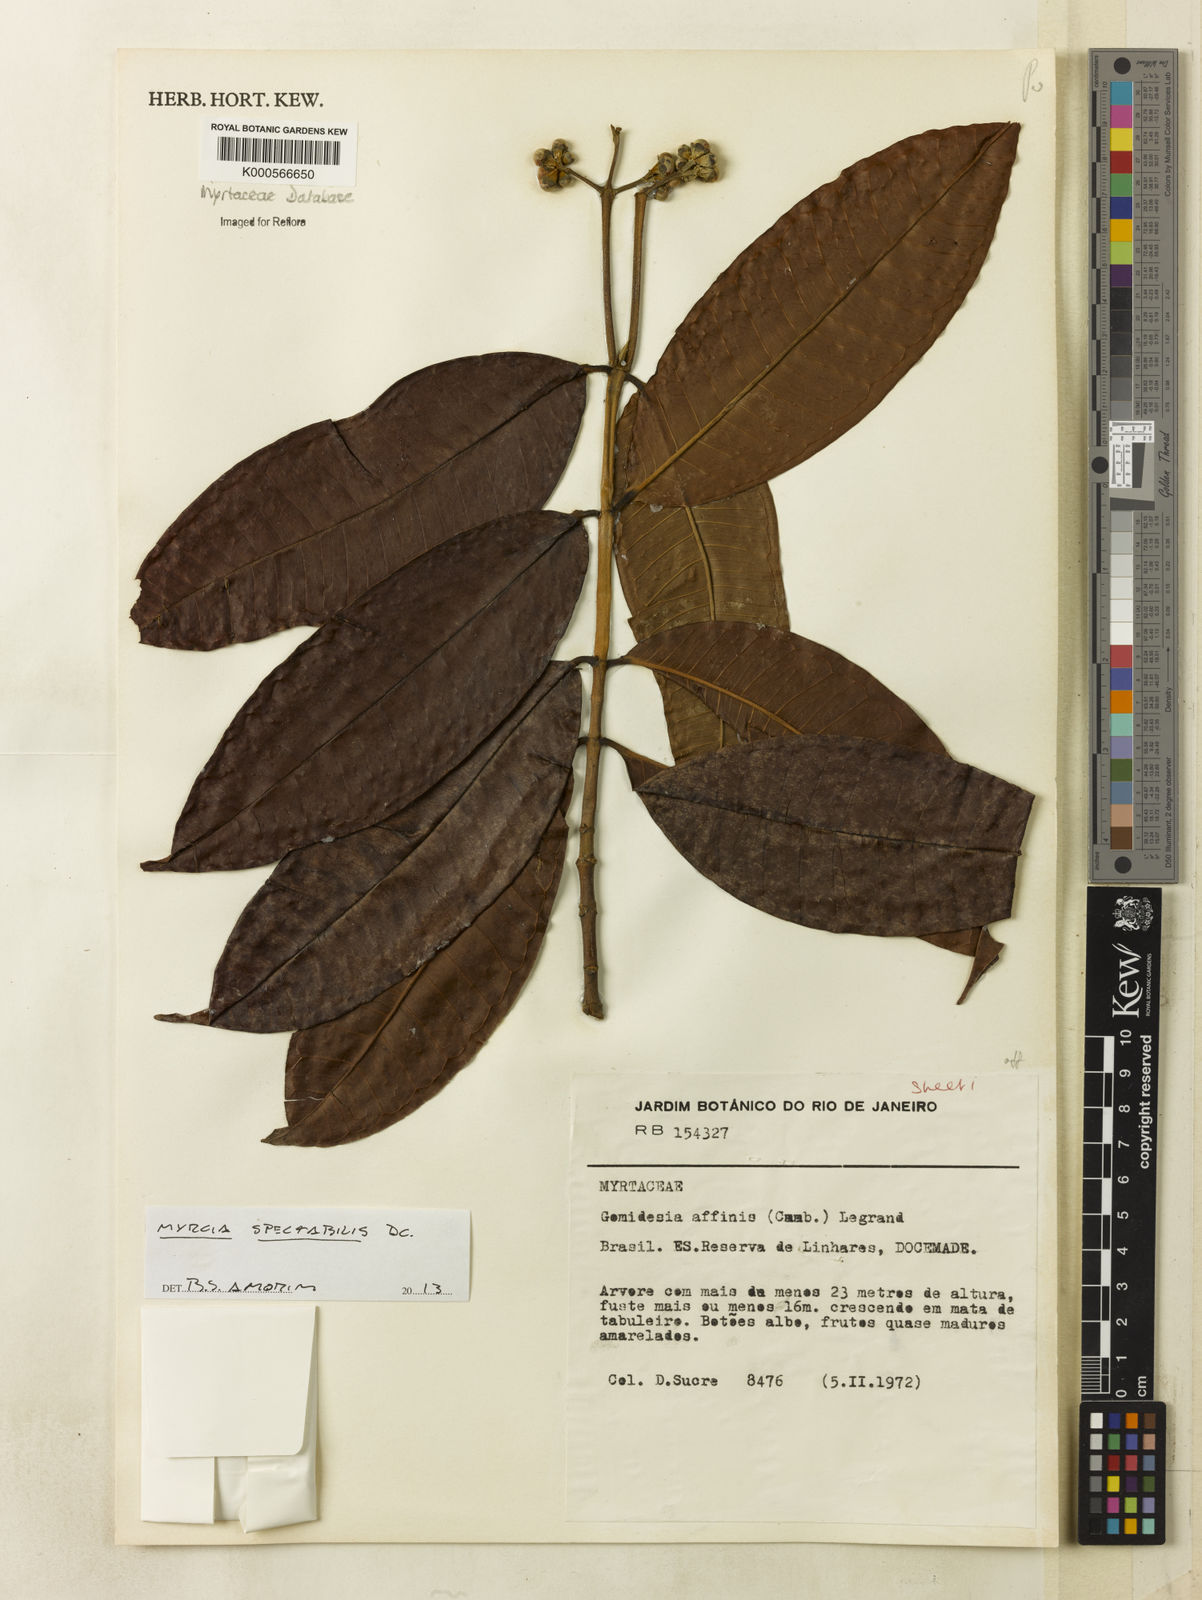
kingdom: Plantae
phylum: Tracheophyta
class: Magnoliopsida
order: Myrtales
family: Myrtaceae
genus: Myrcia
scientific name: Myrcia spectabilis
